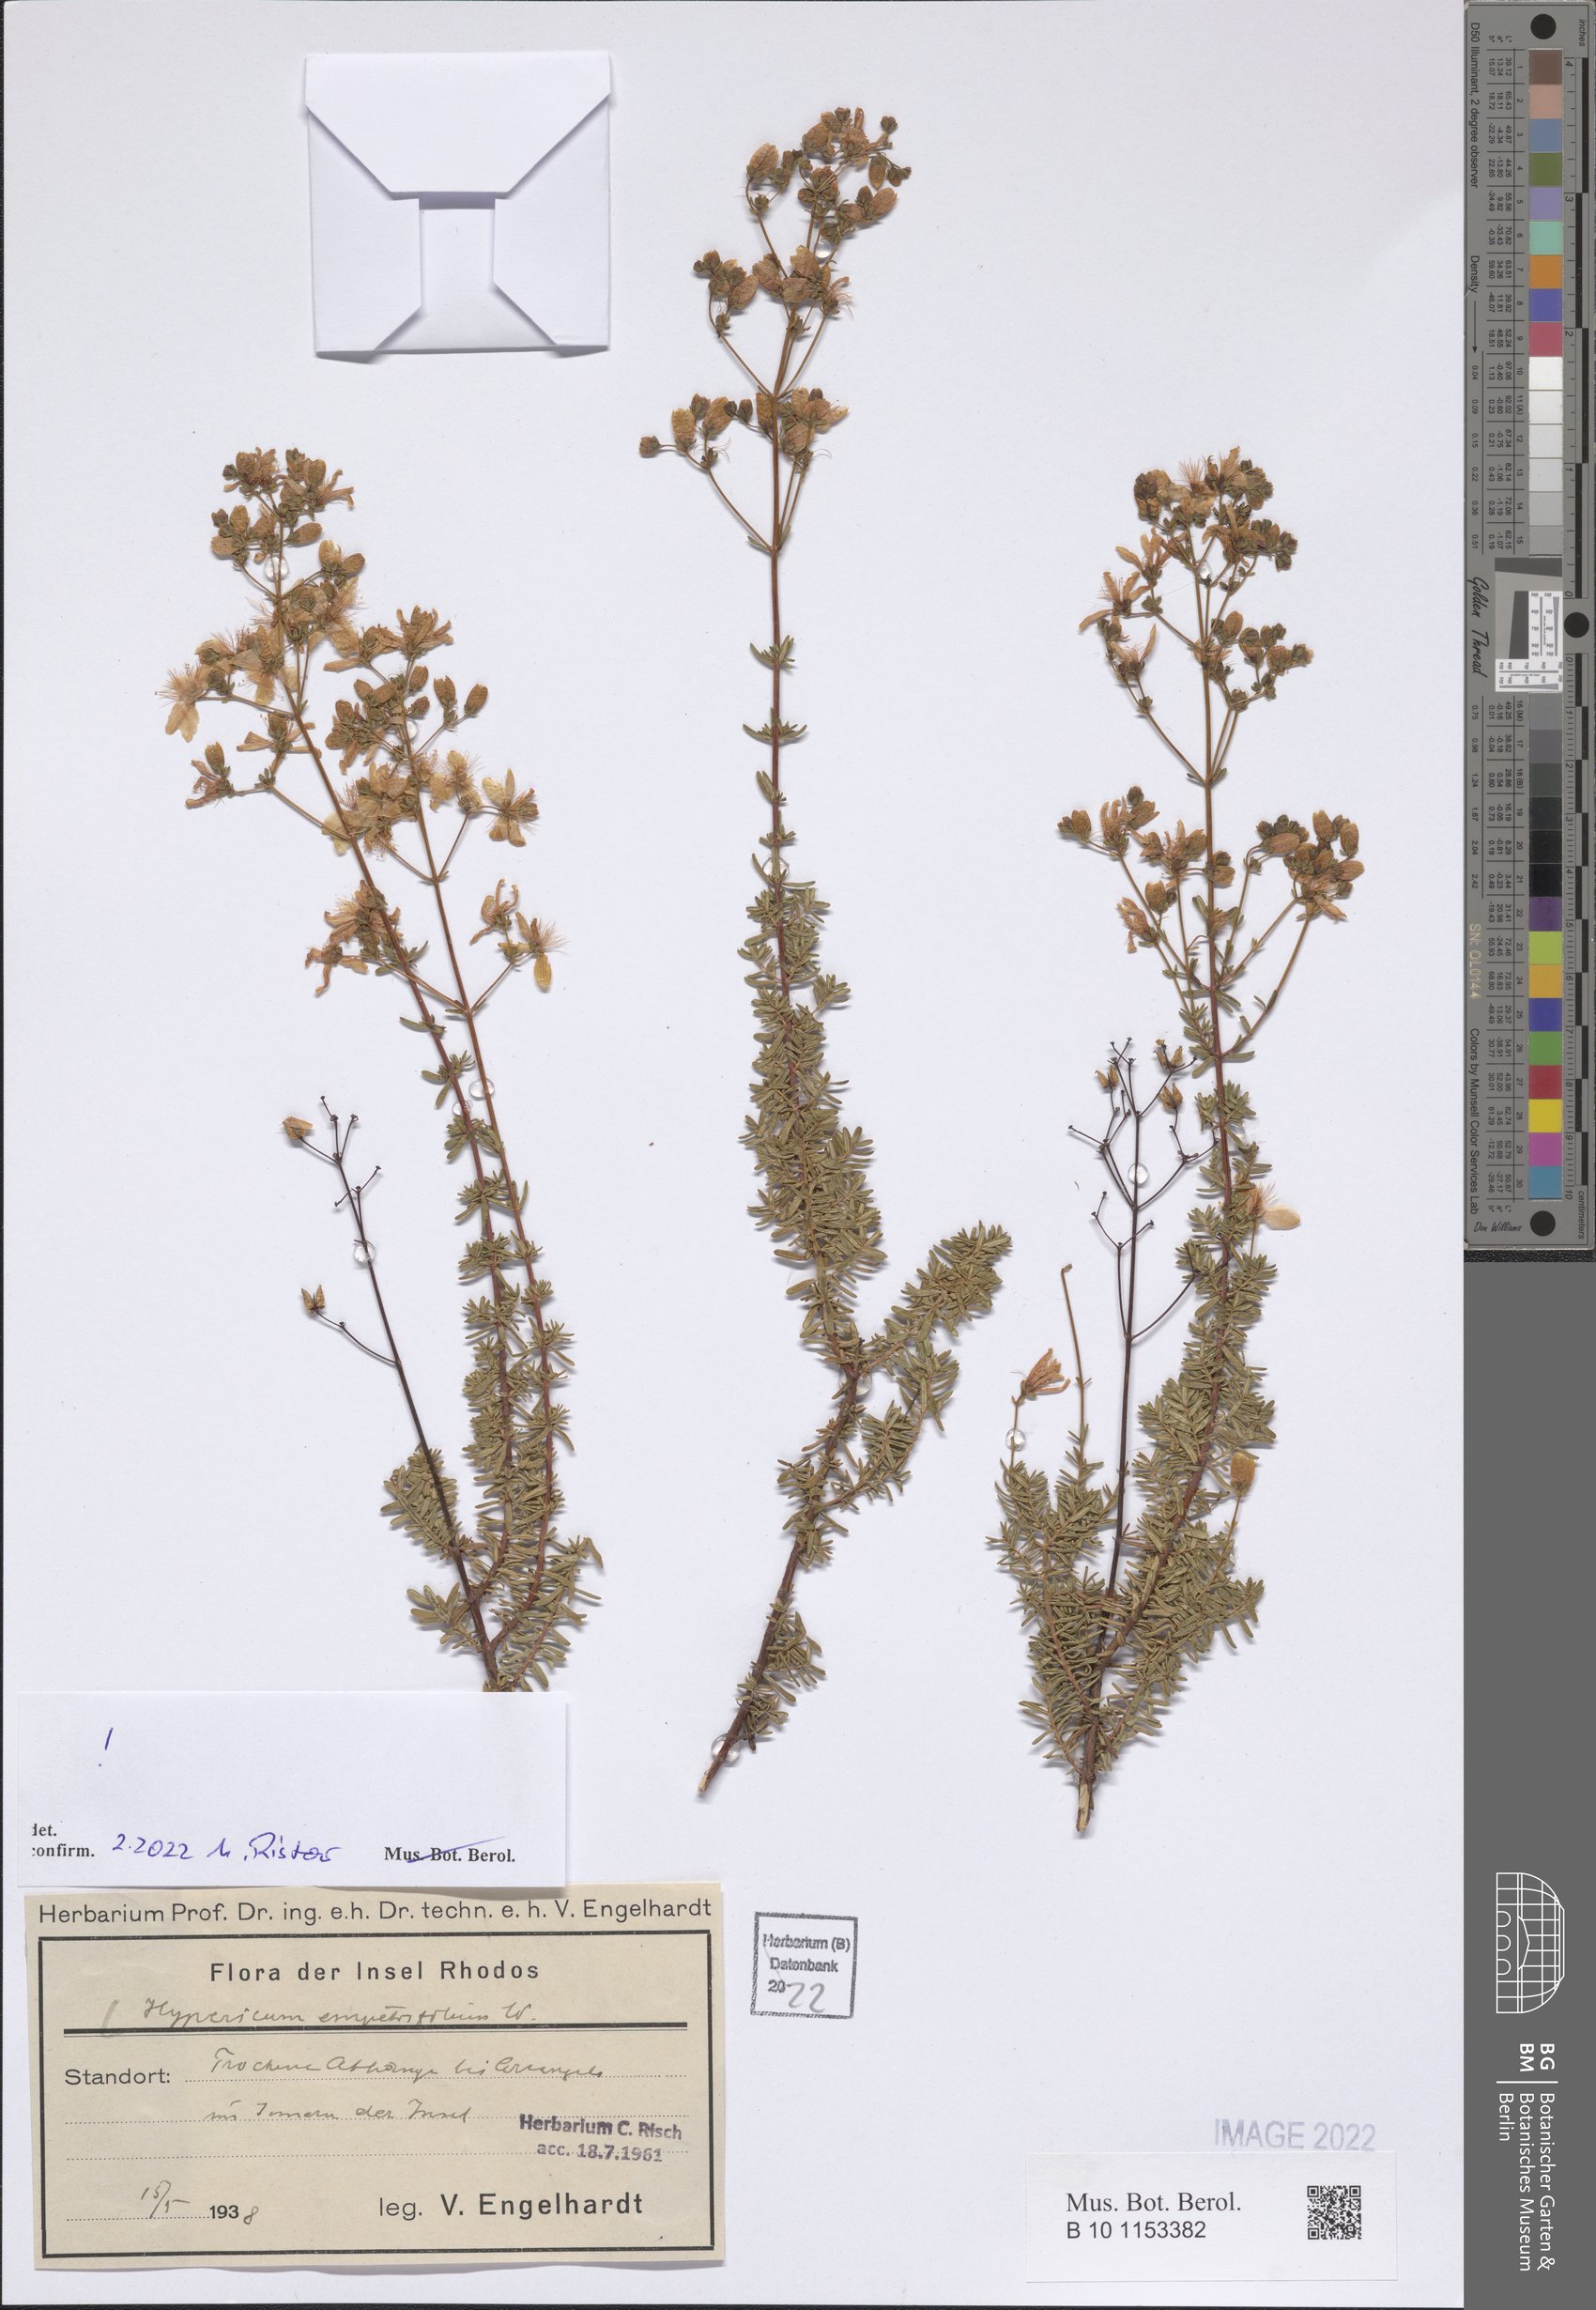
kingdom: Plantae
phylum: Tracheophyta
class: Magnoliopsida
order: Malpighiales
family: Hypericaceae
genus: Hypericum
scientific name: Hypericum empetrifolium
